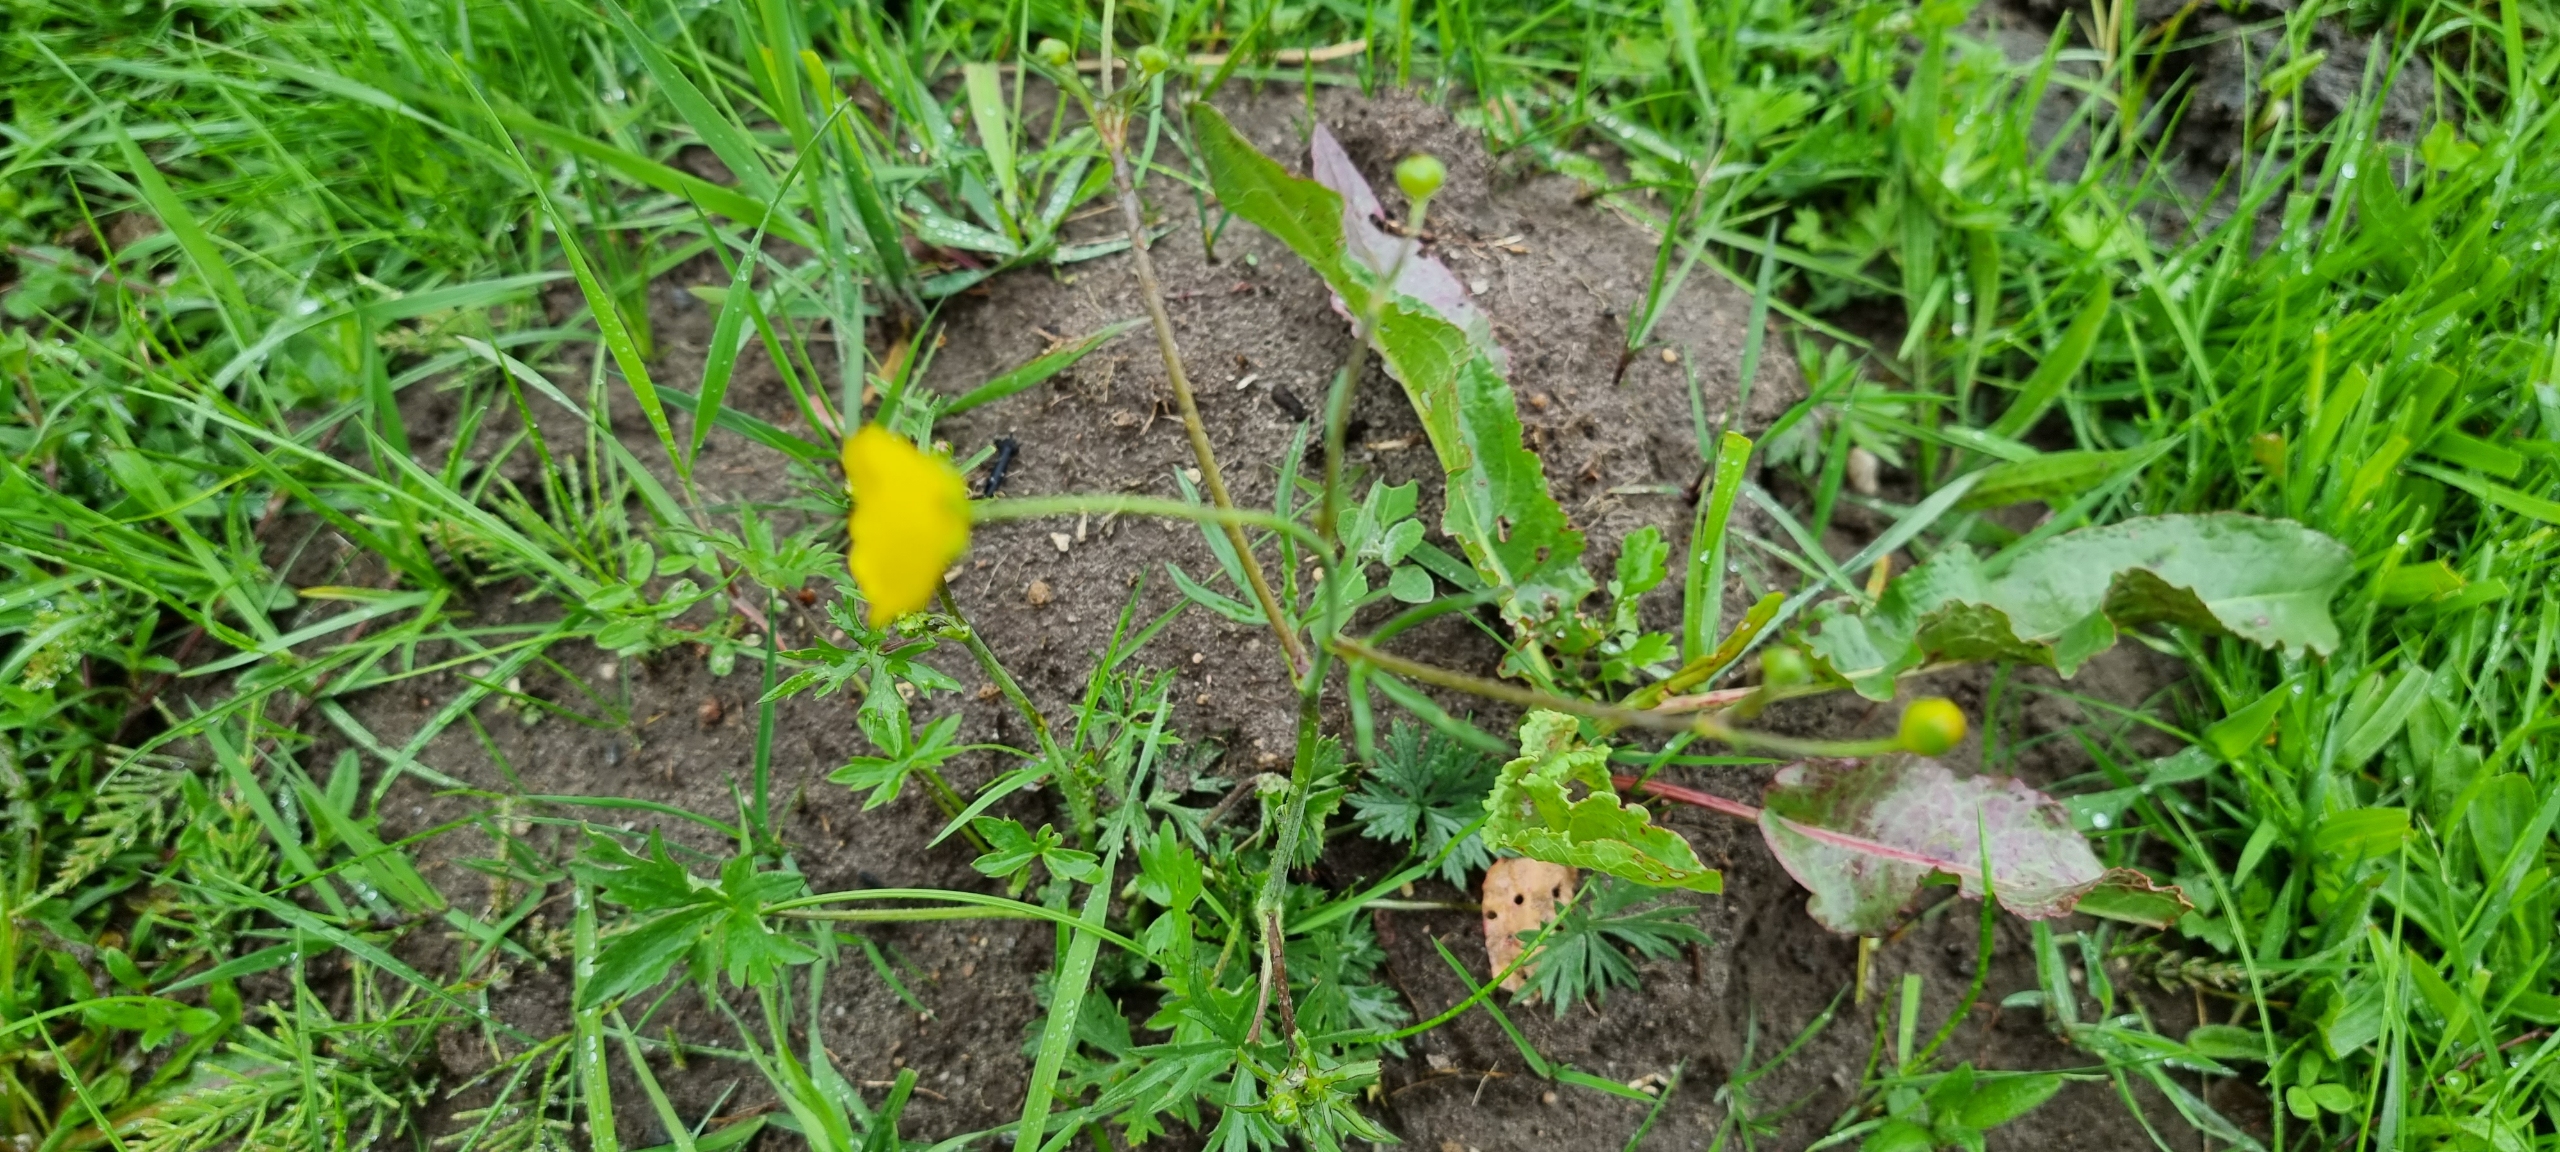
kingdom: Plantae
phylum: Tracheophyta
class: Magnoliopsida
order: Ranunculales
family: Ranunculaceae
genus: Ranunculus
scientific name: Ranunculus acris
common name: Bidende ranunkel
